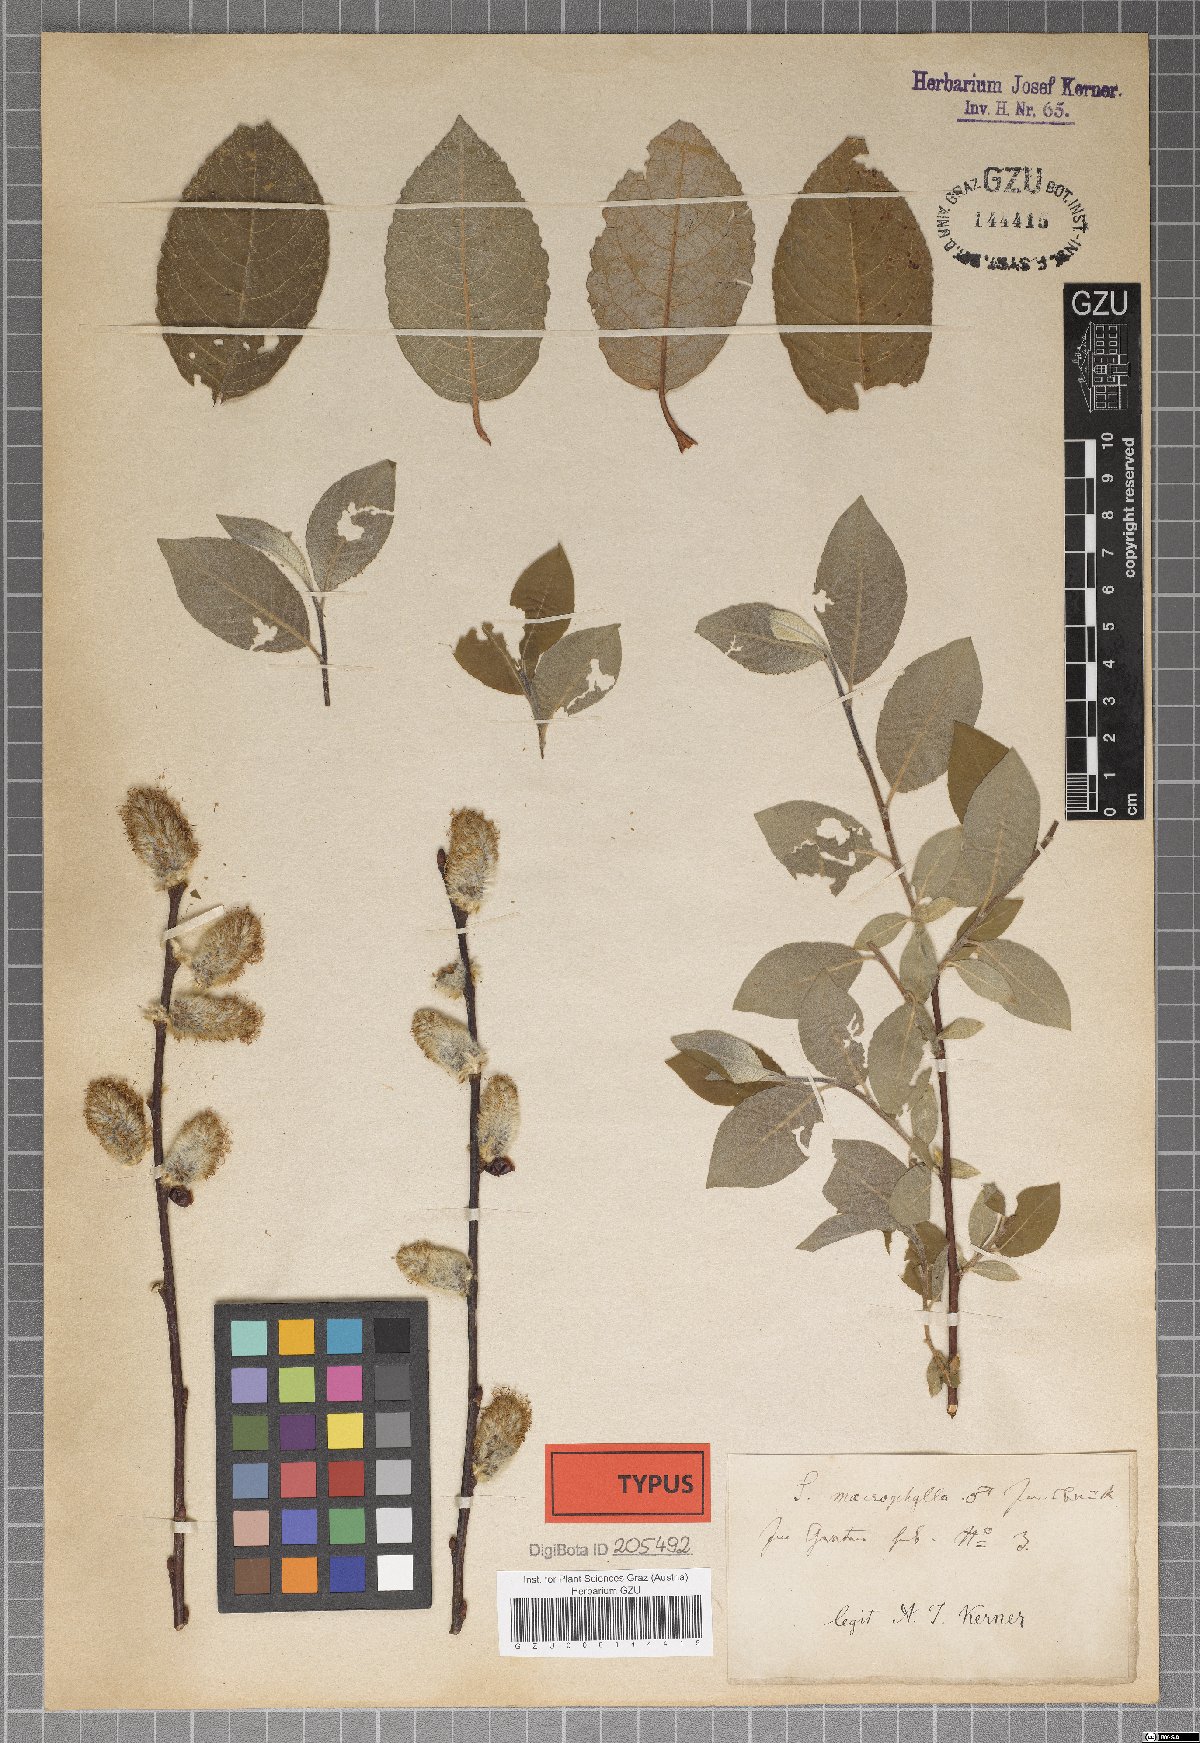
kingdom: Plantae
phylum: Tracheophyta
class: Magnoliopsida
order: Malpighiales
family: Salicaceae
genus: Salix
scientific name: Salix macrophylla
